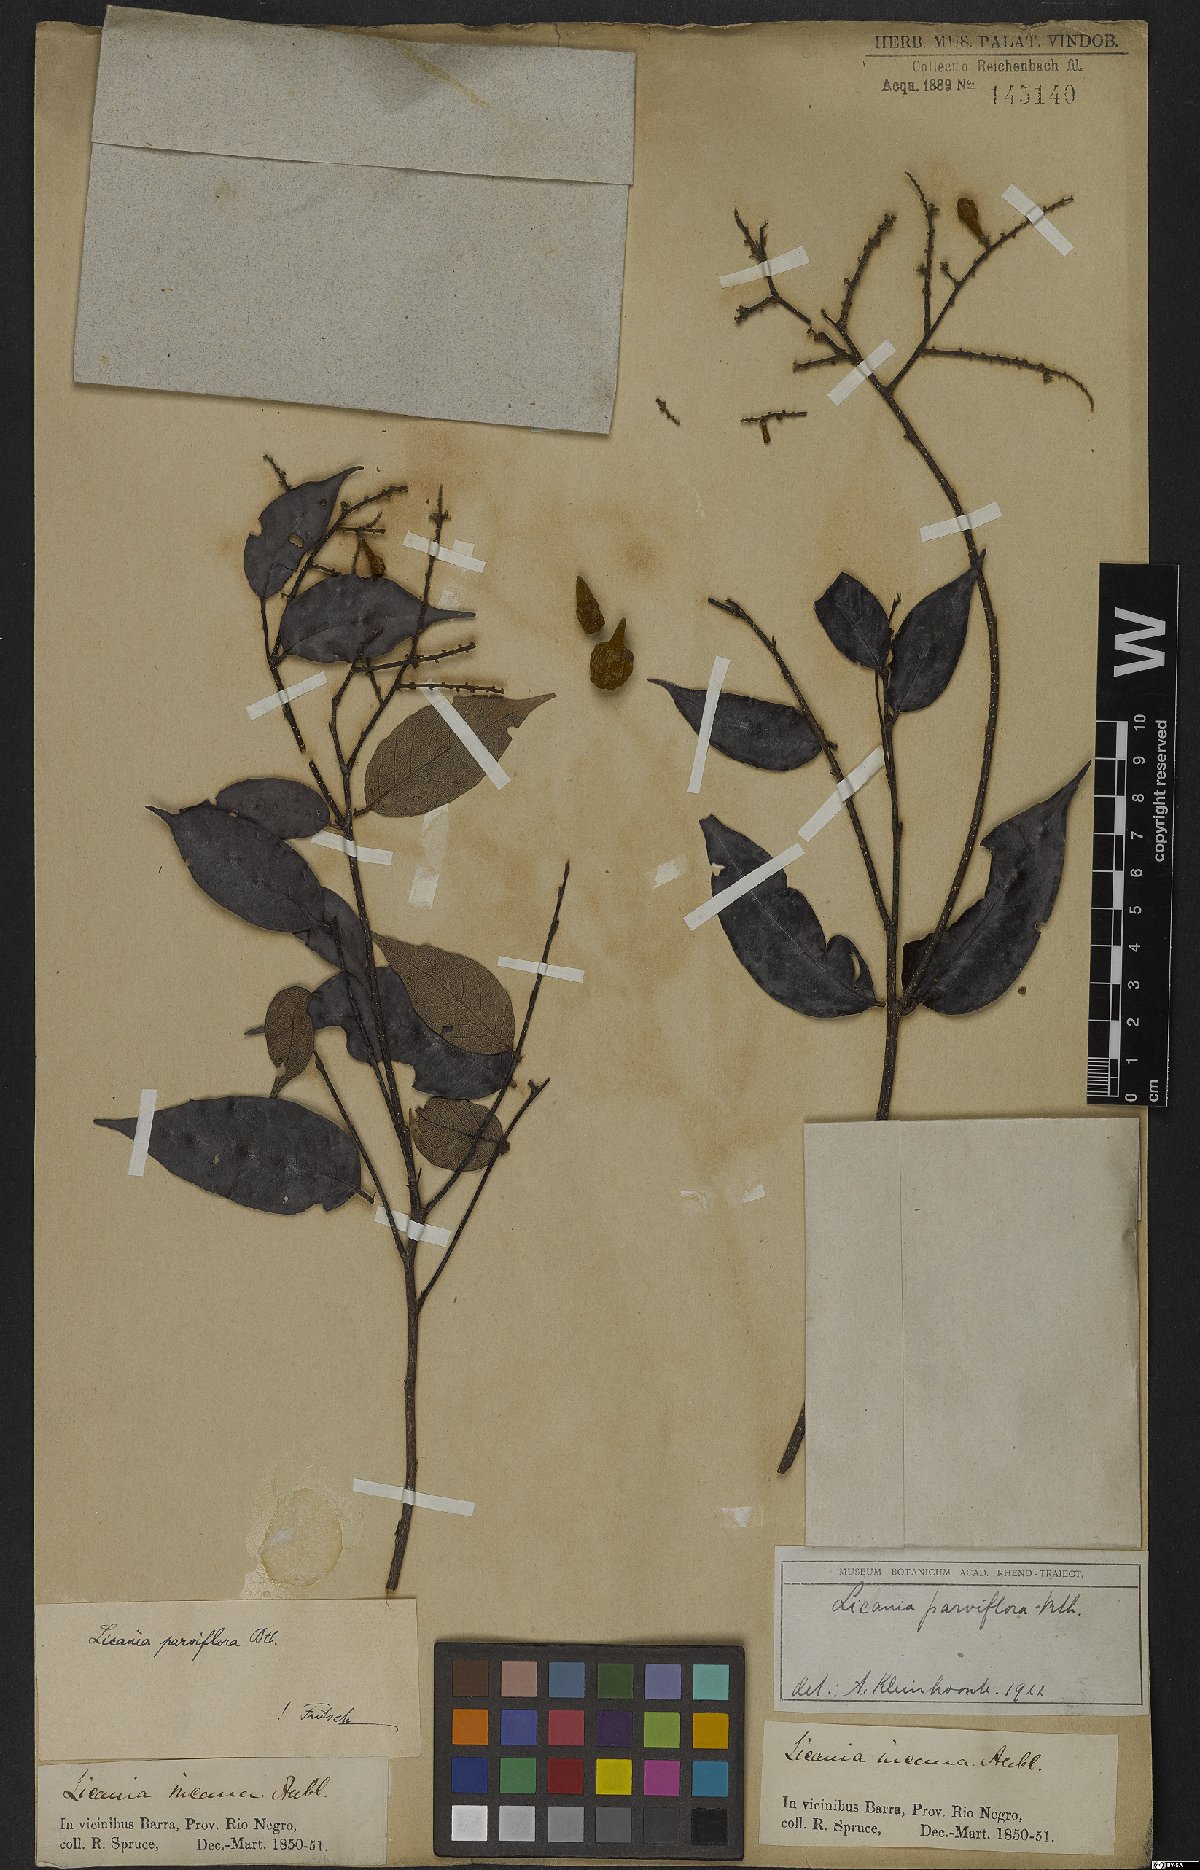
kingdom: Plantae
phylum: Tracheophyta
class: Magnoliopsida
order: Malpighiales
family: Chrysobalanaceae
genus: Leptobalanus
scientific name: Leptobalanus parviflorus
